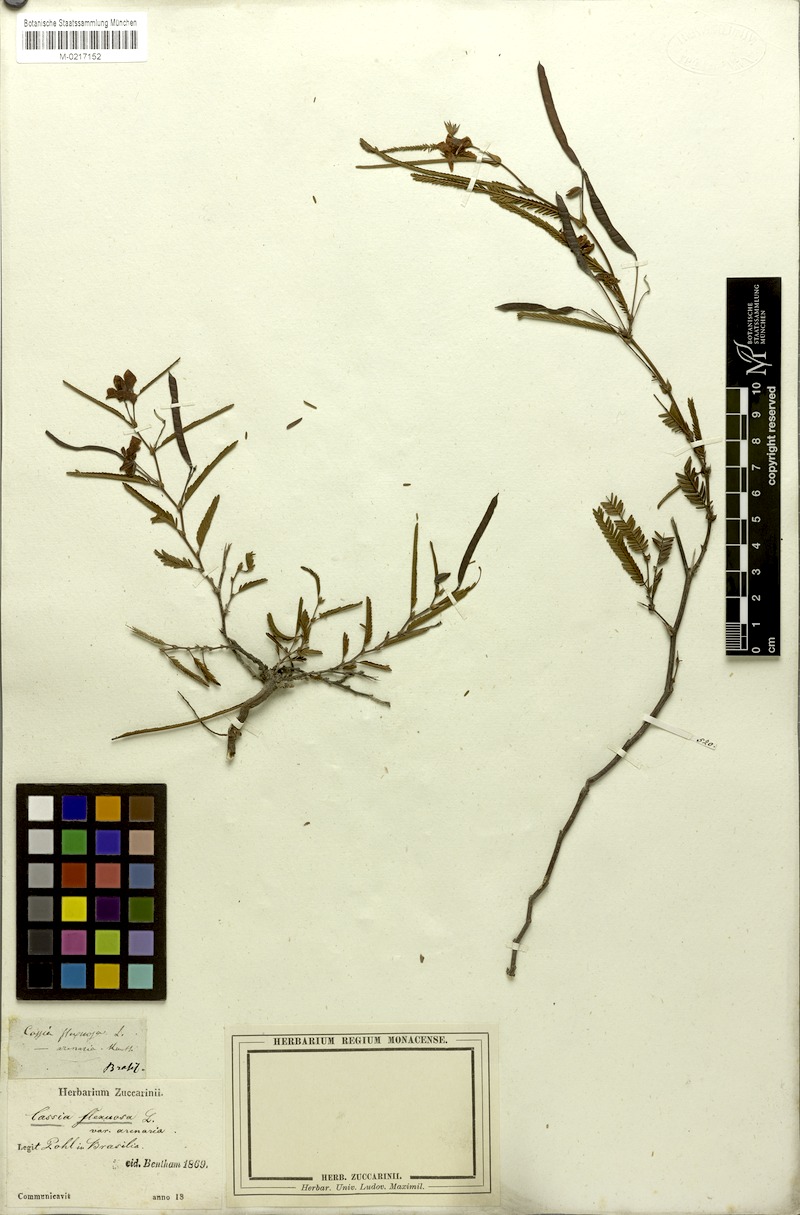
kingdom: Plantae
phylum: Tracheophyta
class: Magnoliopsida
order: Fabales
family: Fabaceae
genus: Chamaecrista
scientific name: Chamaecrista flexuosa
